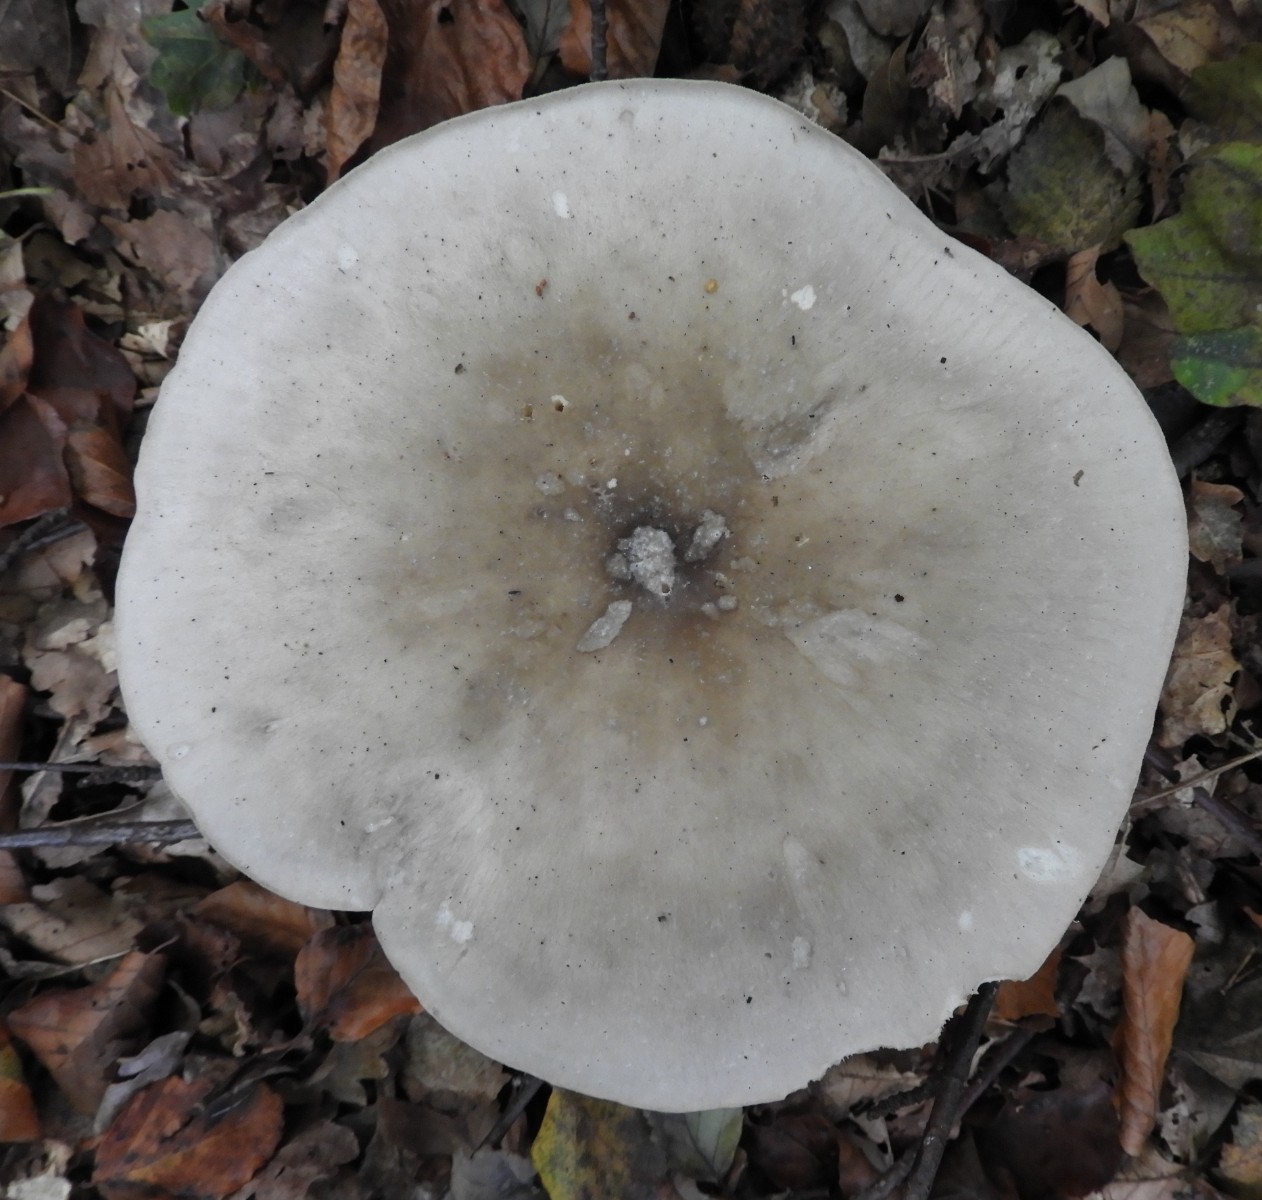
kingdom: Fungi
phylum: Basidiomycota
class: Agaricomycetes
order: Agaricales
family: Tricholomataceae
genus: Clitocybe
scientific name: Clitocybe nebularis
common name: tåge-tragthat
